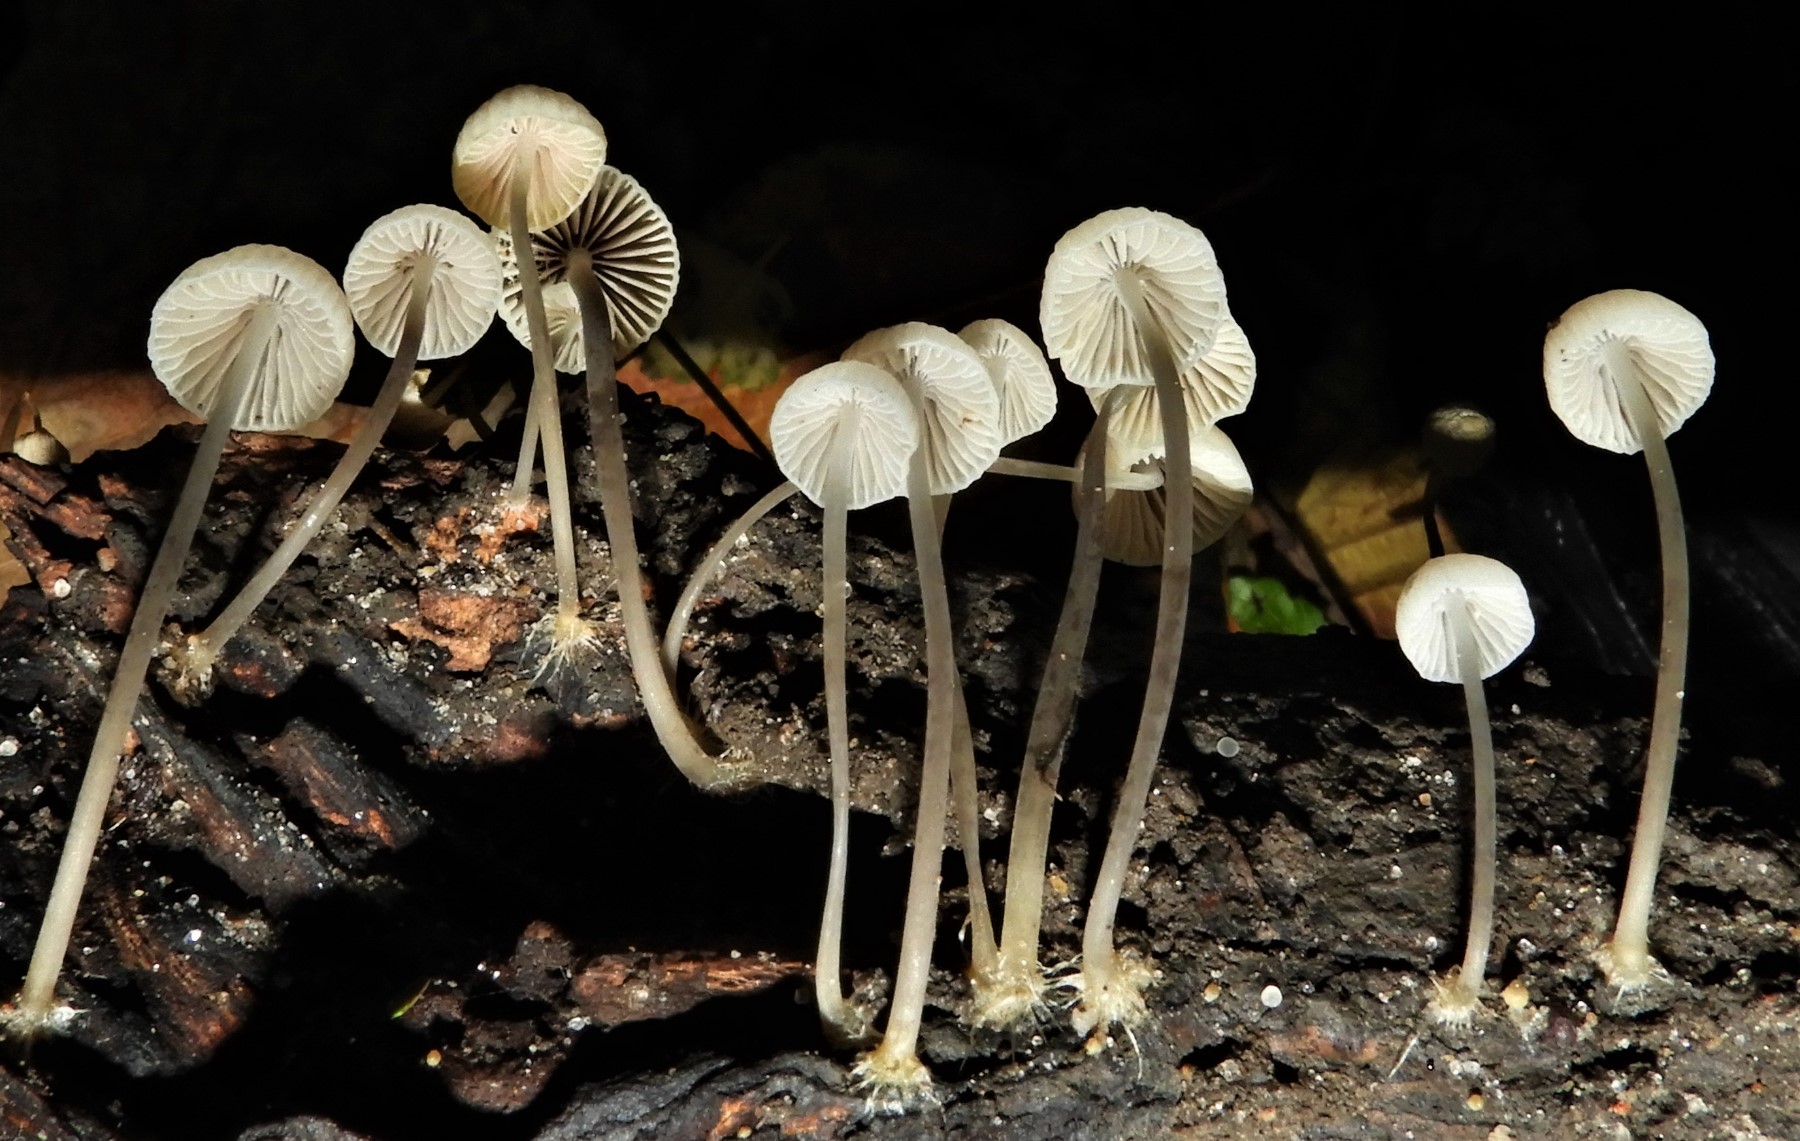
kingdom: Fungi
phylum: Basidiomycota
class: Agaricomycetes
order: Agaricales
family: Porotheleaceae
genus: Phloeomana
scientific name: Phloeomana hiemalis
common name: sen huesvamp
